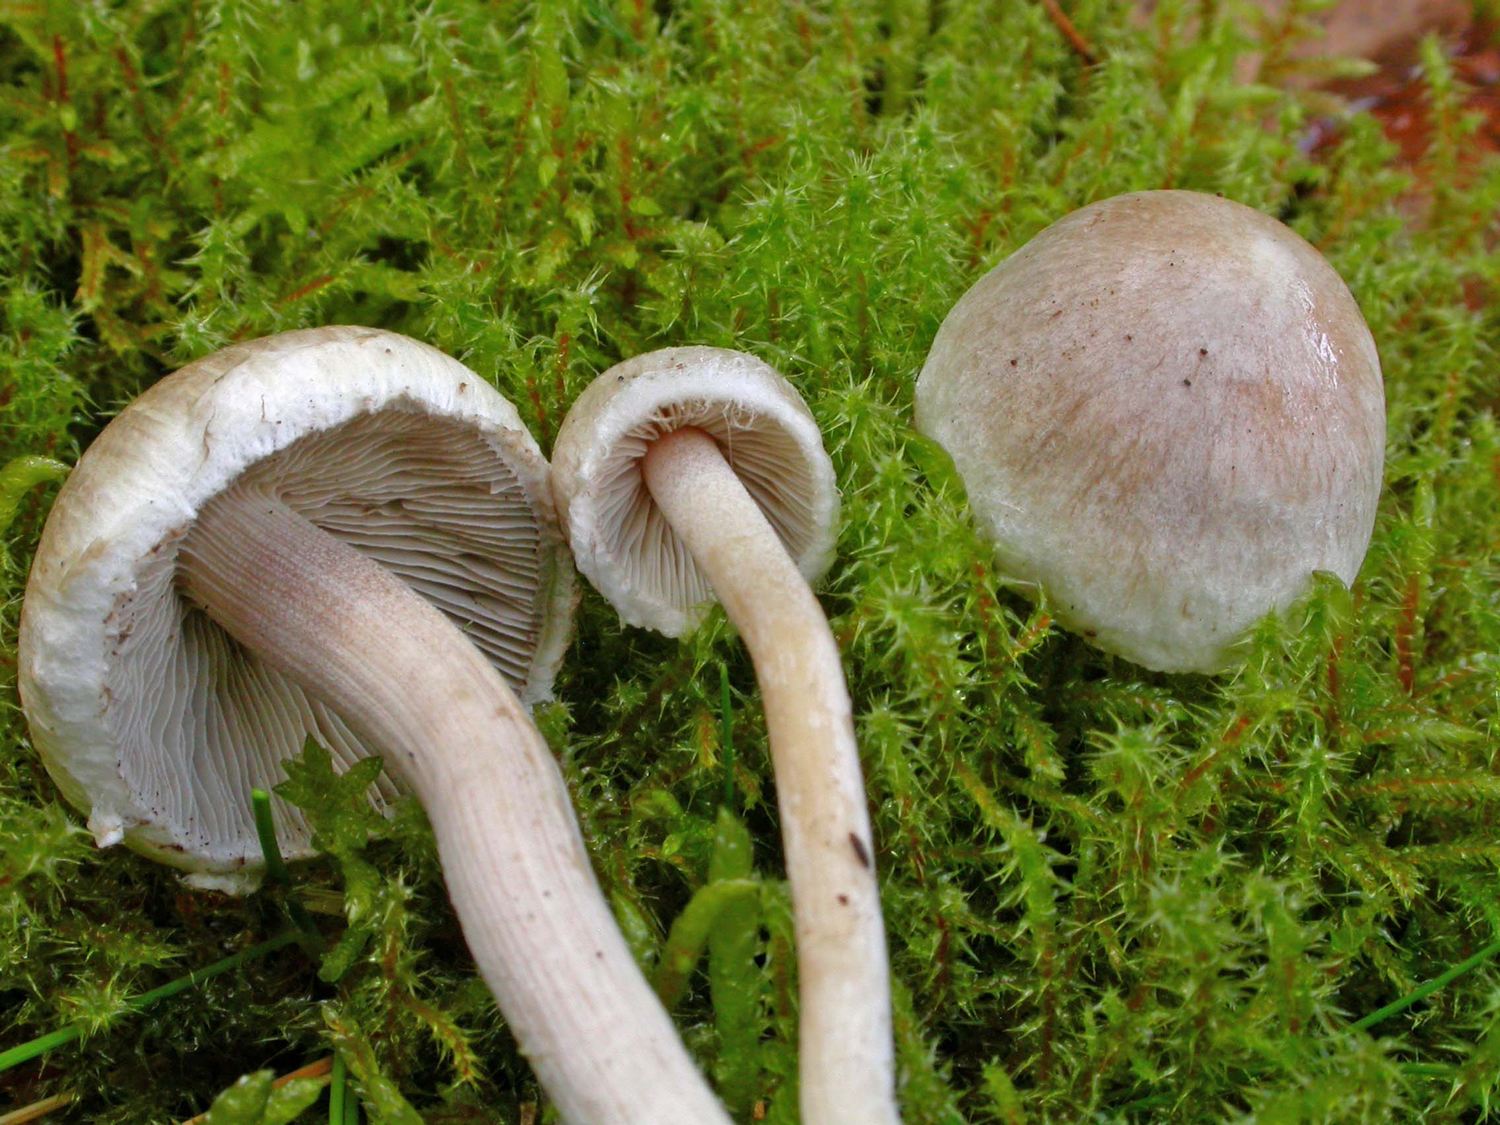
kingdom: Fungi
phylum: Basidiomycota
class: Agaricomycetes
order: Agaricales
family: Inocybaceae
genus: Inocybe
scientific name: Inocybe
